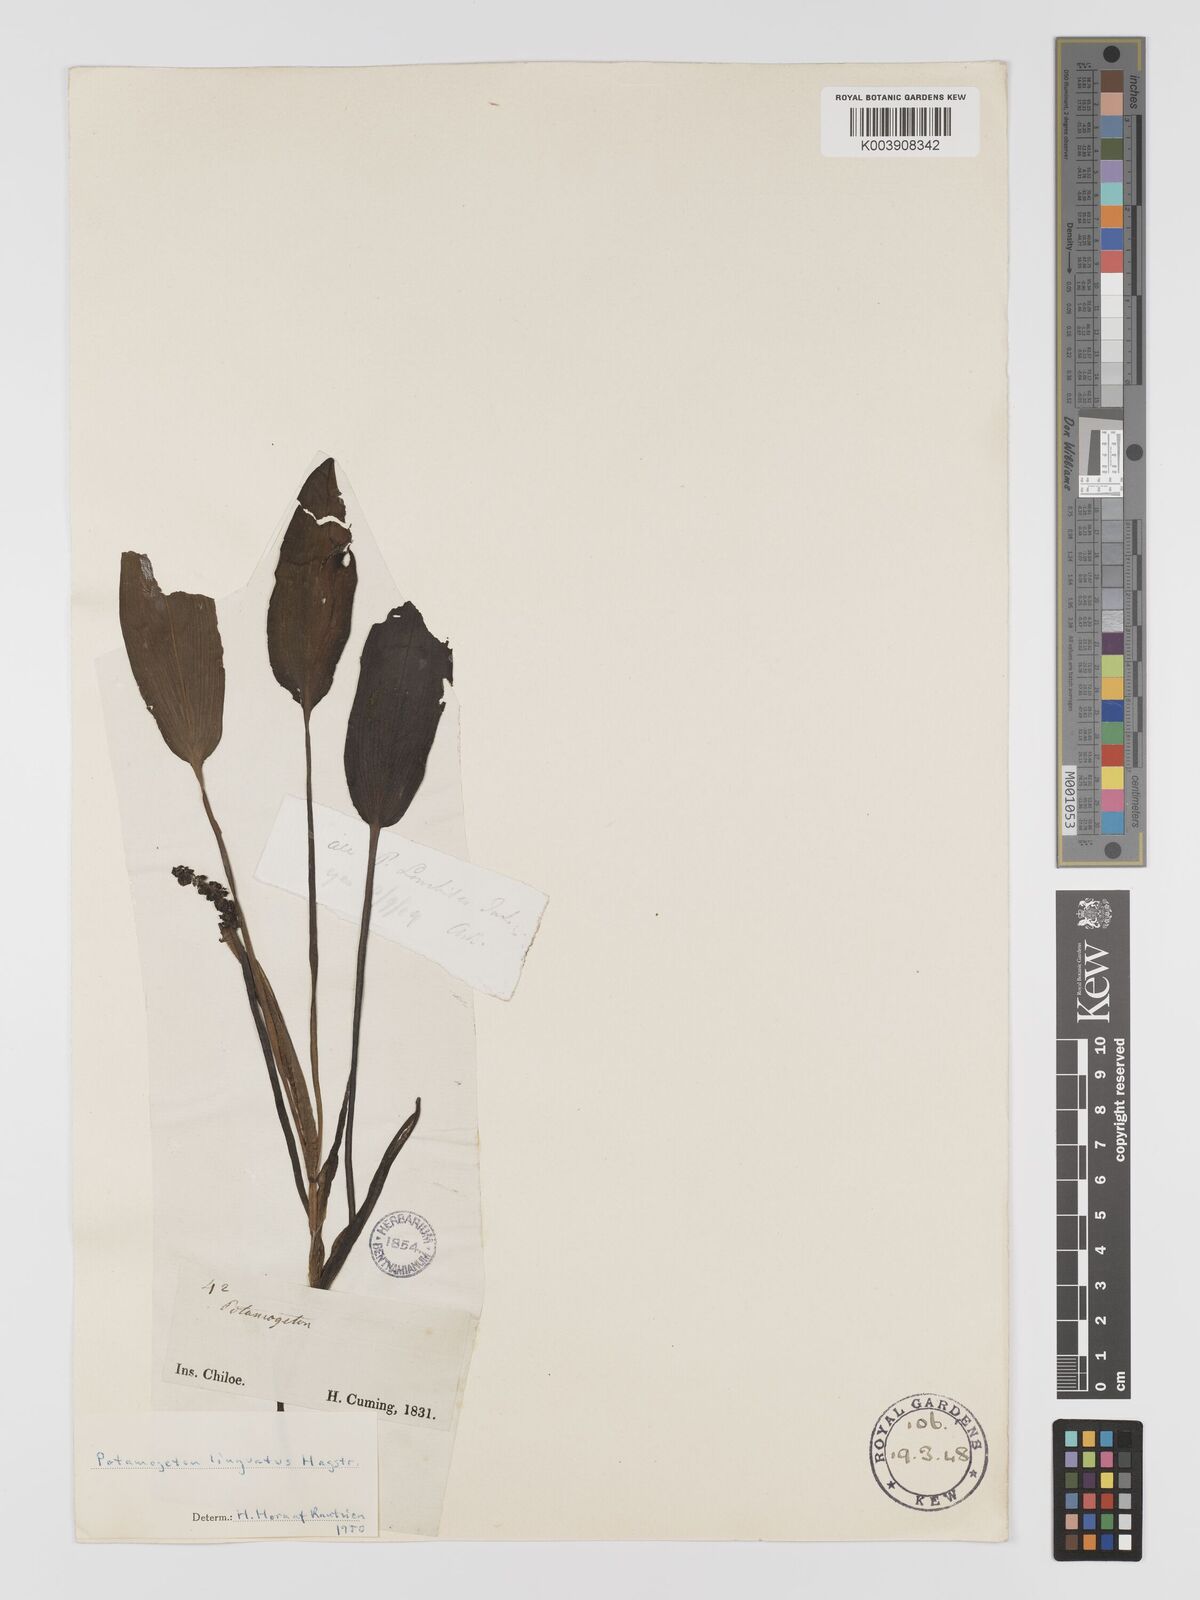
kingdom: Plantae
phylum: Tracheophyta
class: Liliopsida
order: Alismatales
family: Potamogetonaceae
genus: Potamogeton
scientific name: Potamogeton linguatus
